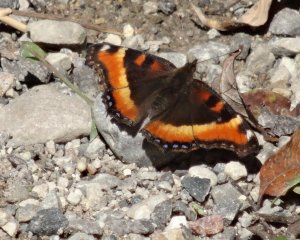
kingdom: Animalia
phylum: Arthropoda
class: Insecta
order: Lepidoptera
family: Nymphalidae
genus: Aglais
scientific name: Aglais milberti
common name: Milbert's Tortoiseshell
